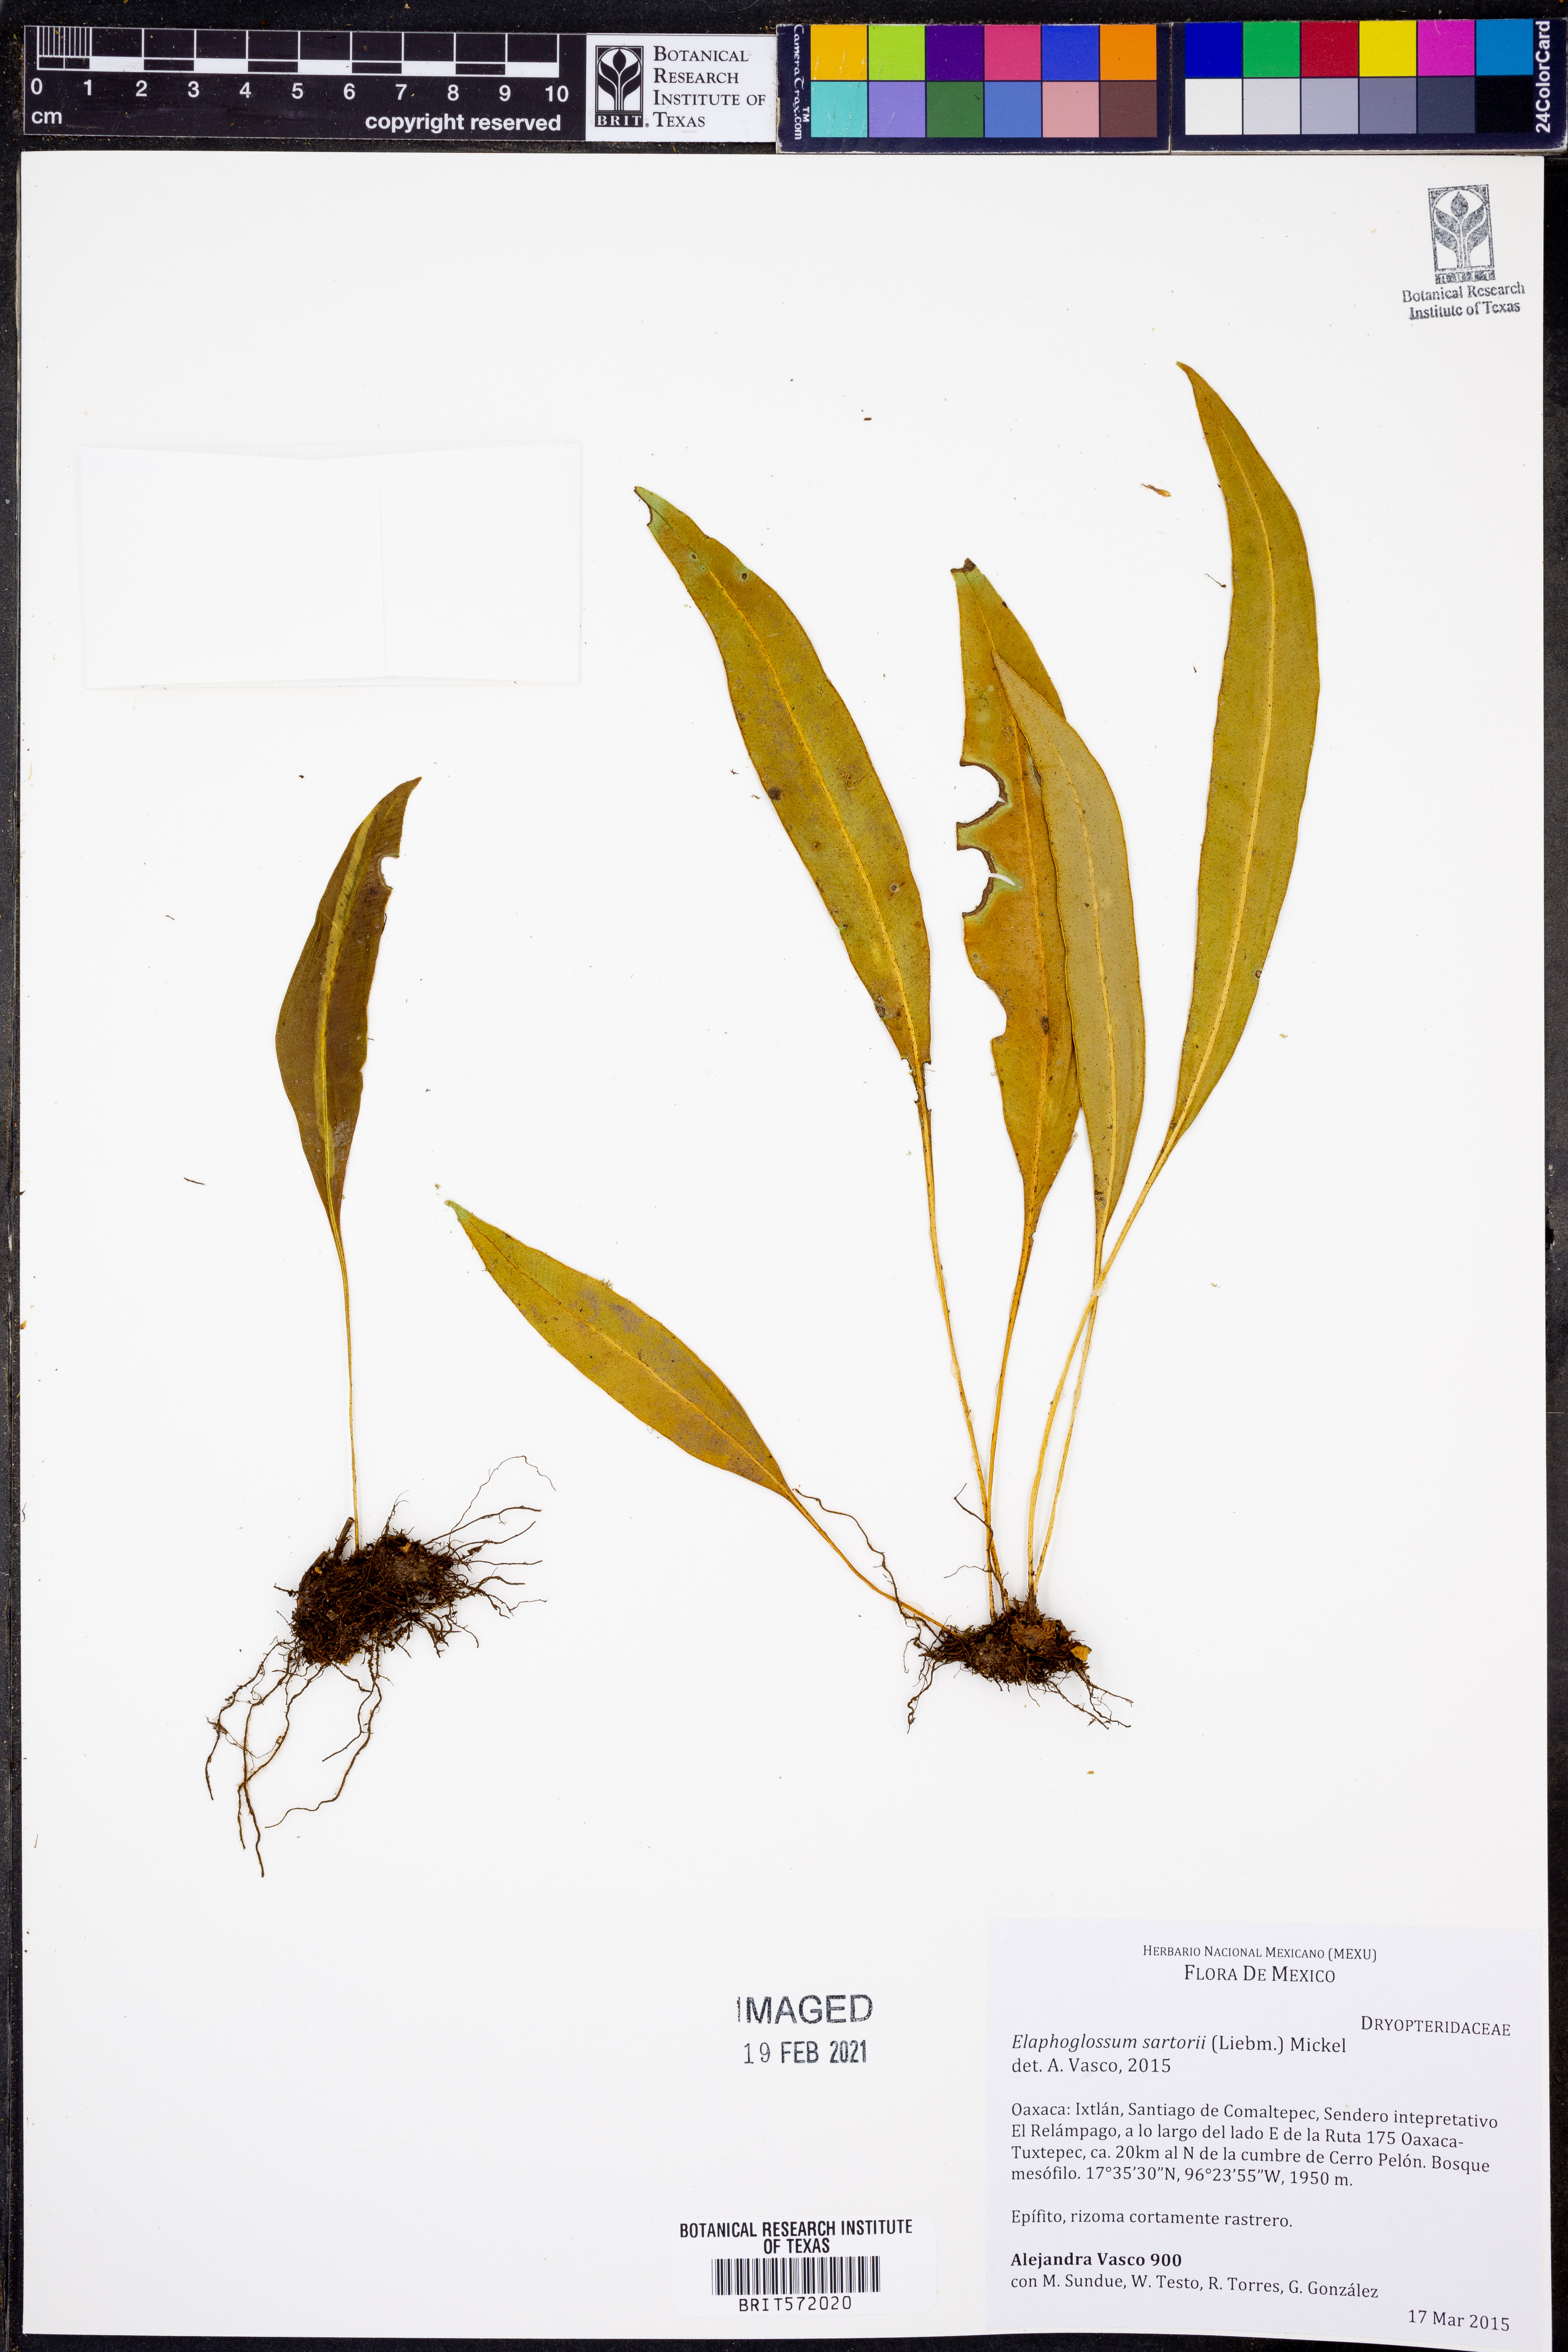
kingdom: Plantae
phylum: Tracheophyta
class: Polypodiopsida
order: Polypodiales
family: Dryopteridaceae
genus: Elaphoglossum
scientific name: Elaphoglossum sartorii
